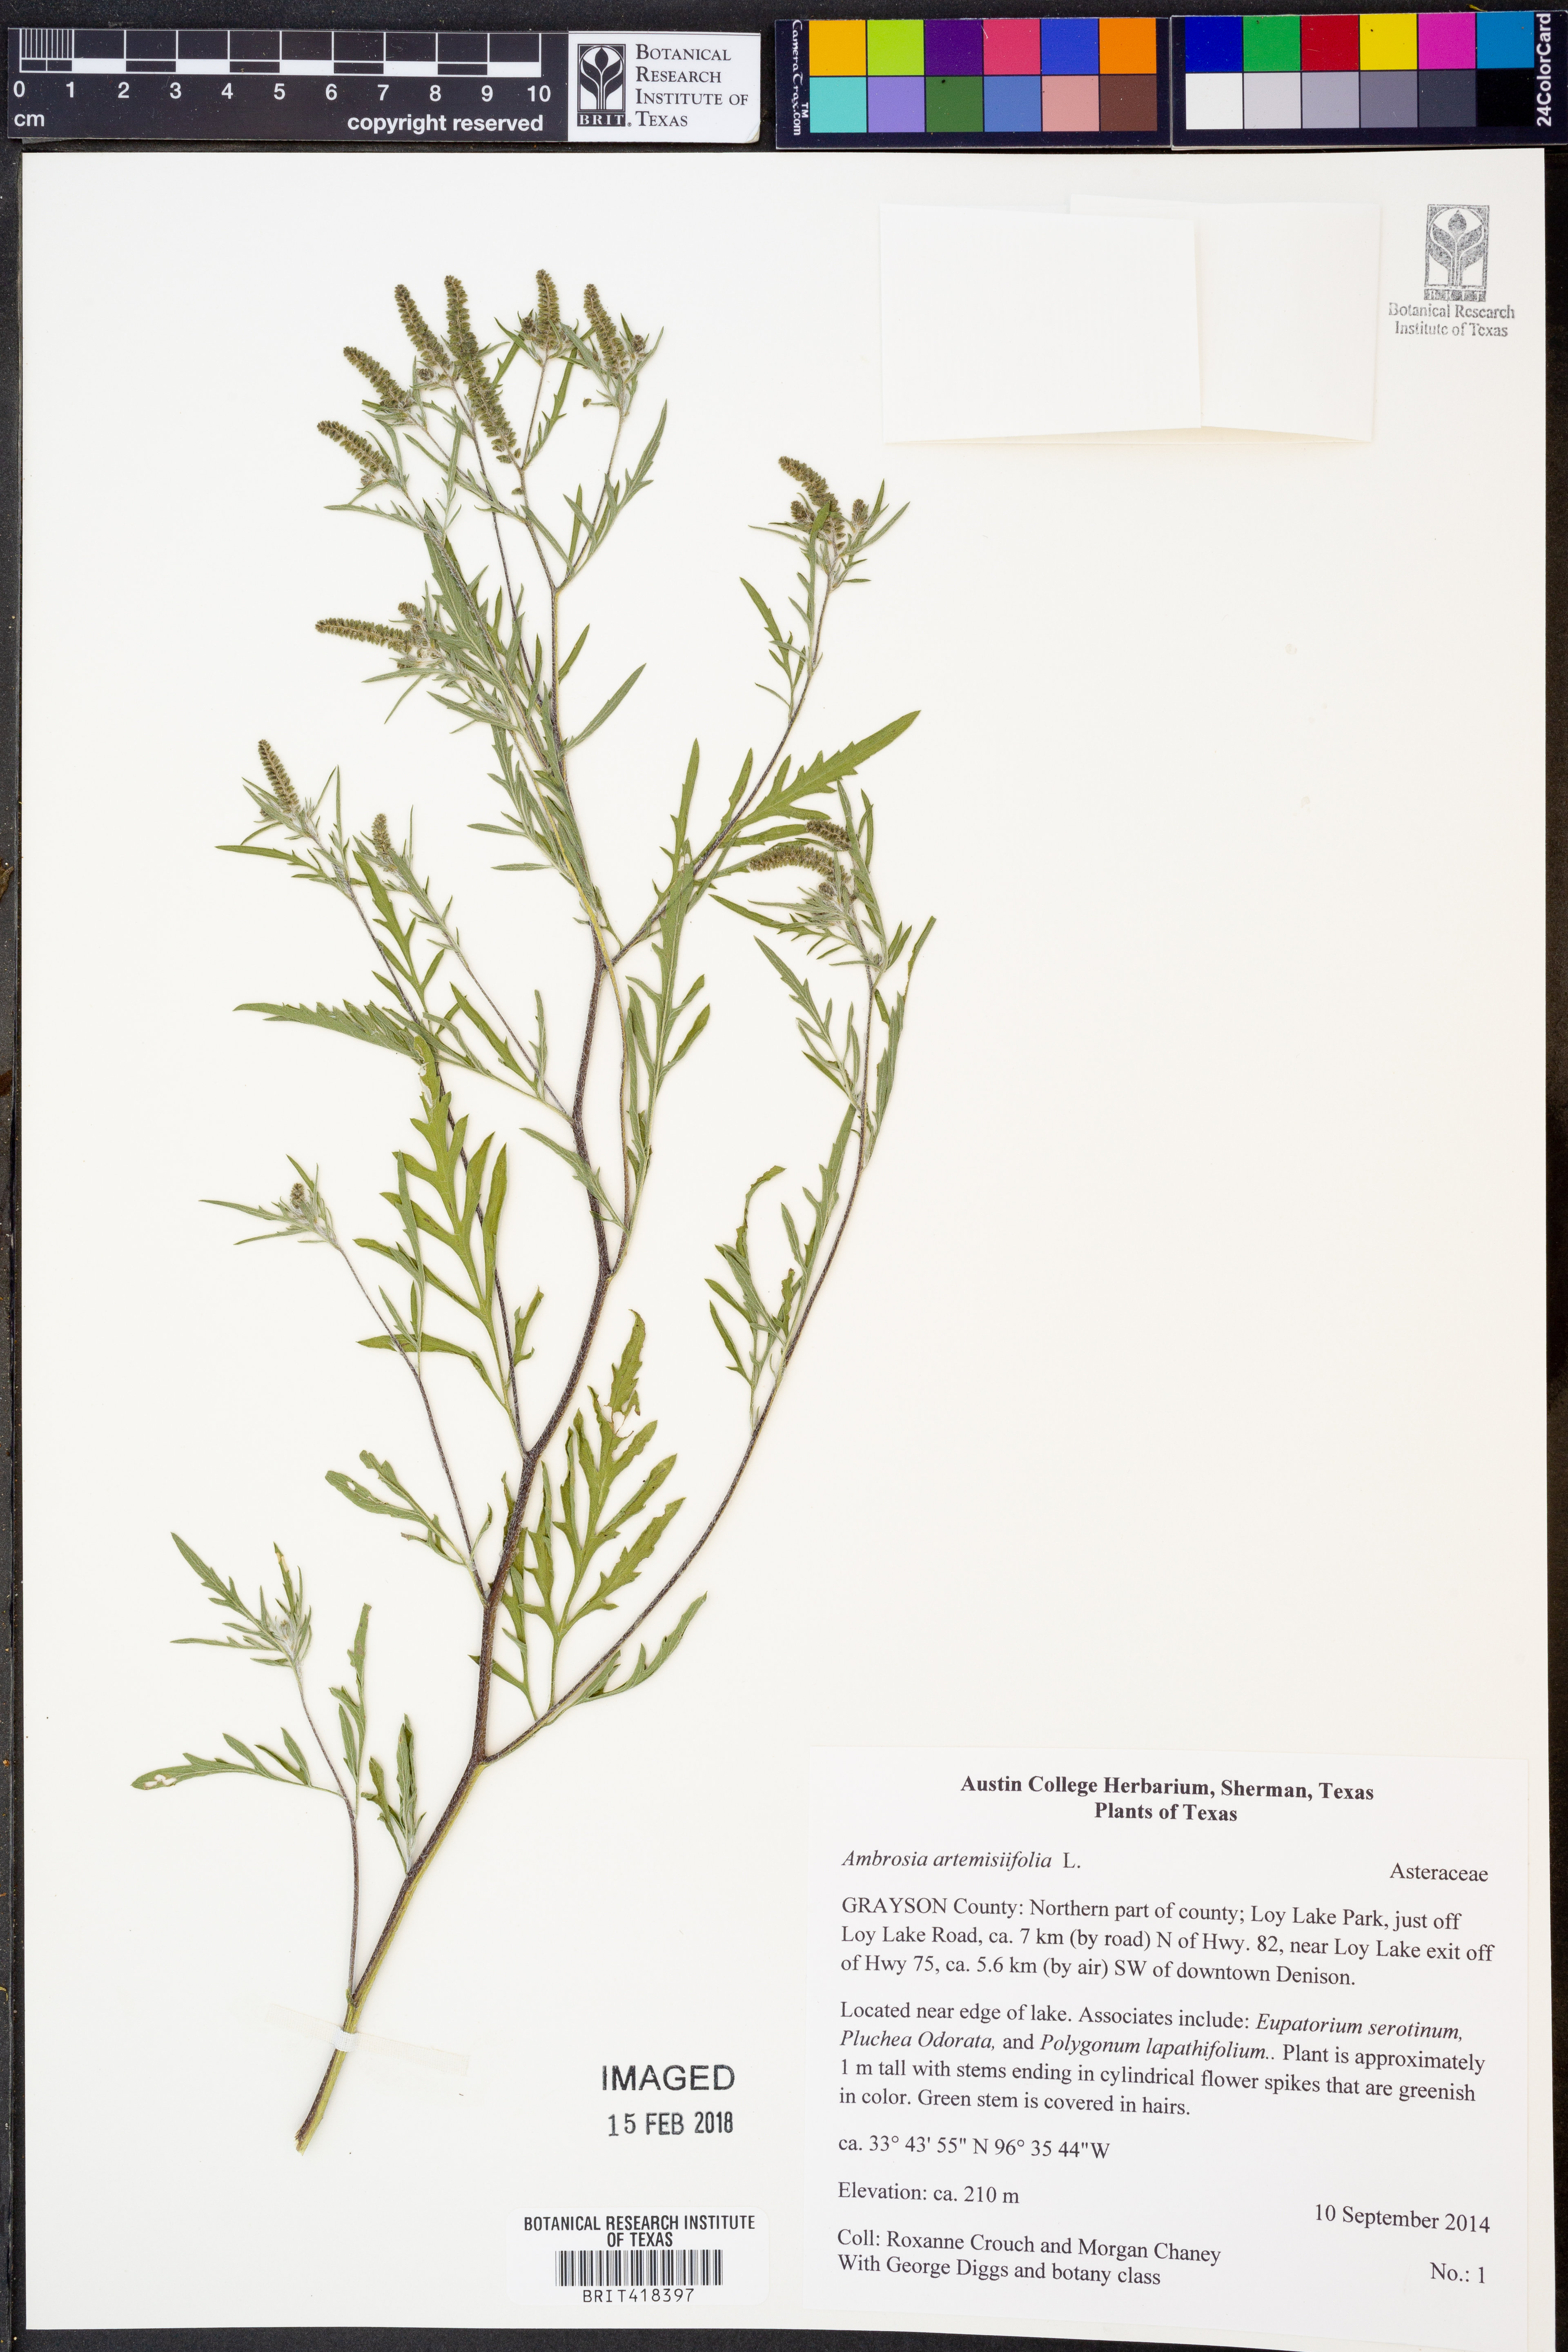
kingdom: Plantae
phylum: Tracheophyta
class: Magnoliopsida
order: Asterales
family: Asteraceae
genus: Ambrosia
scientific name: Ambrosia artemisiifolia
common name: Annual ragweed
